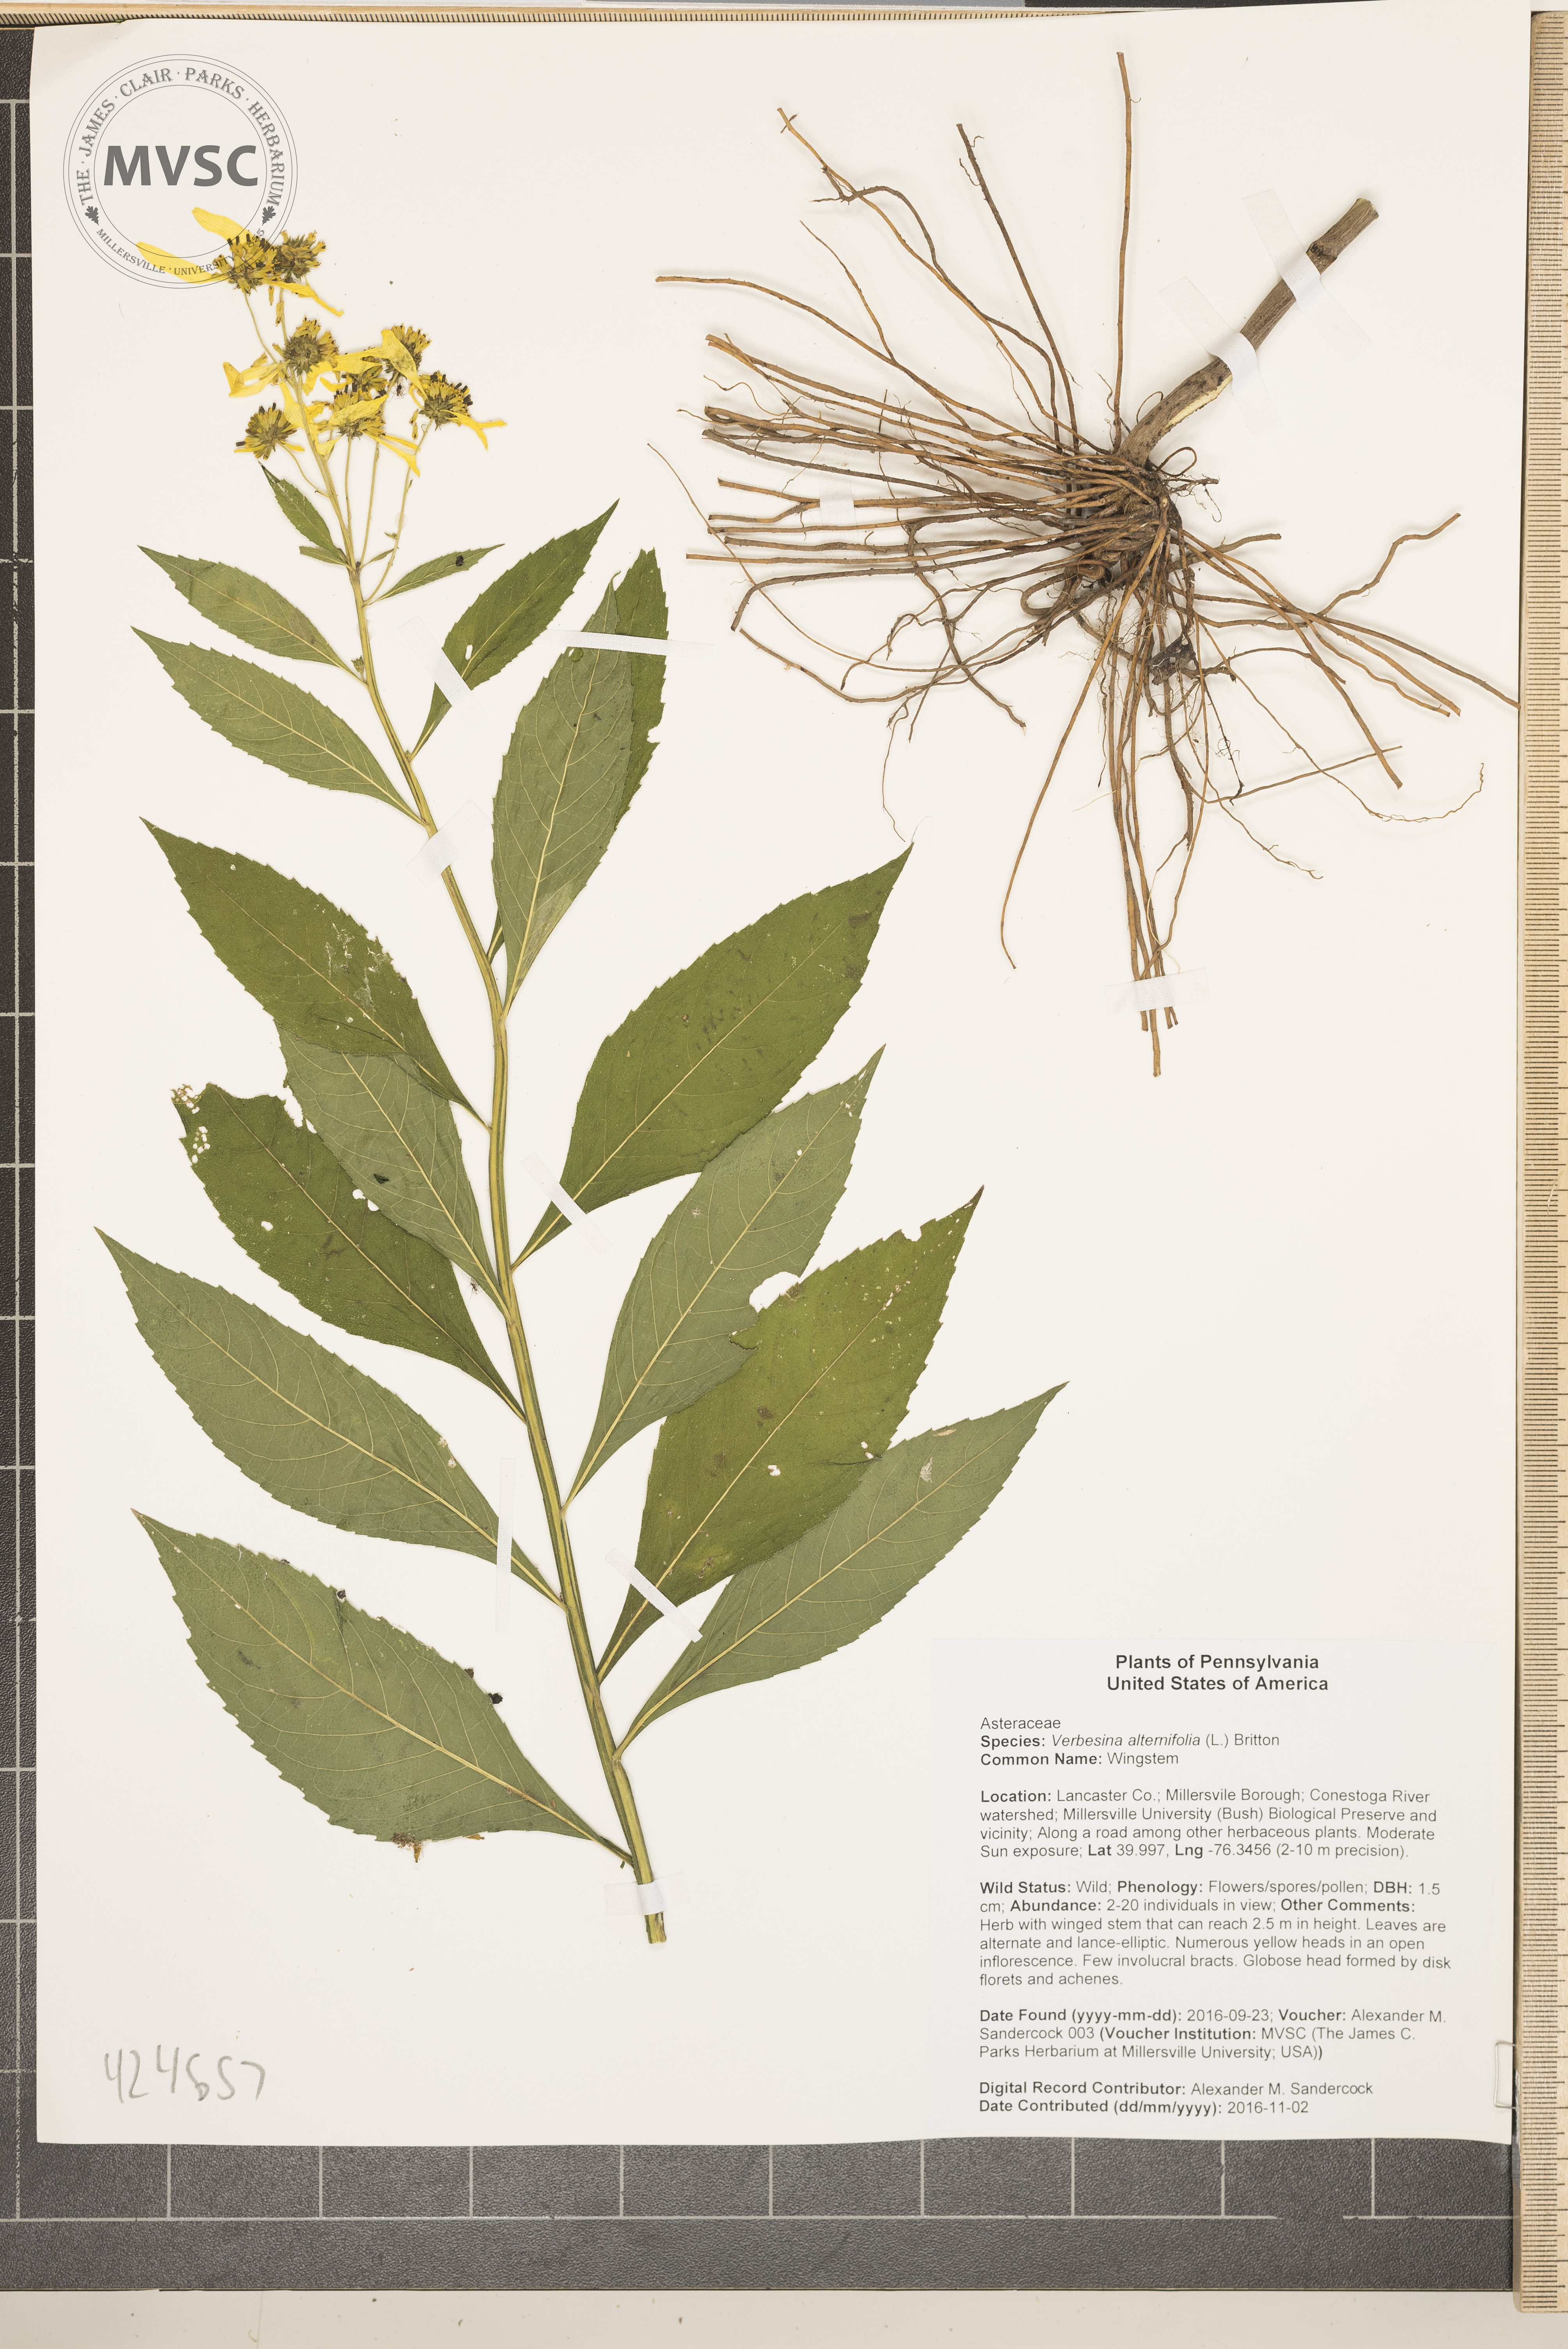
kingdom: Plantae
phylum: Tracheophyta
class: Magnoliopsida
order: Asterales
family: Asteraceae
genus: Verbesina
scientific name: Verbesina alternifolia
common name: Wingstem
